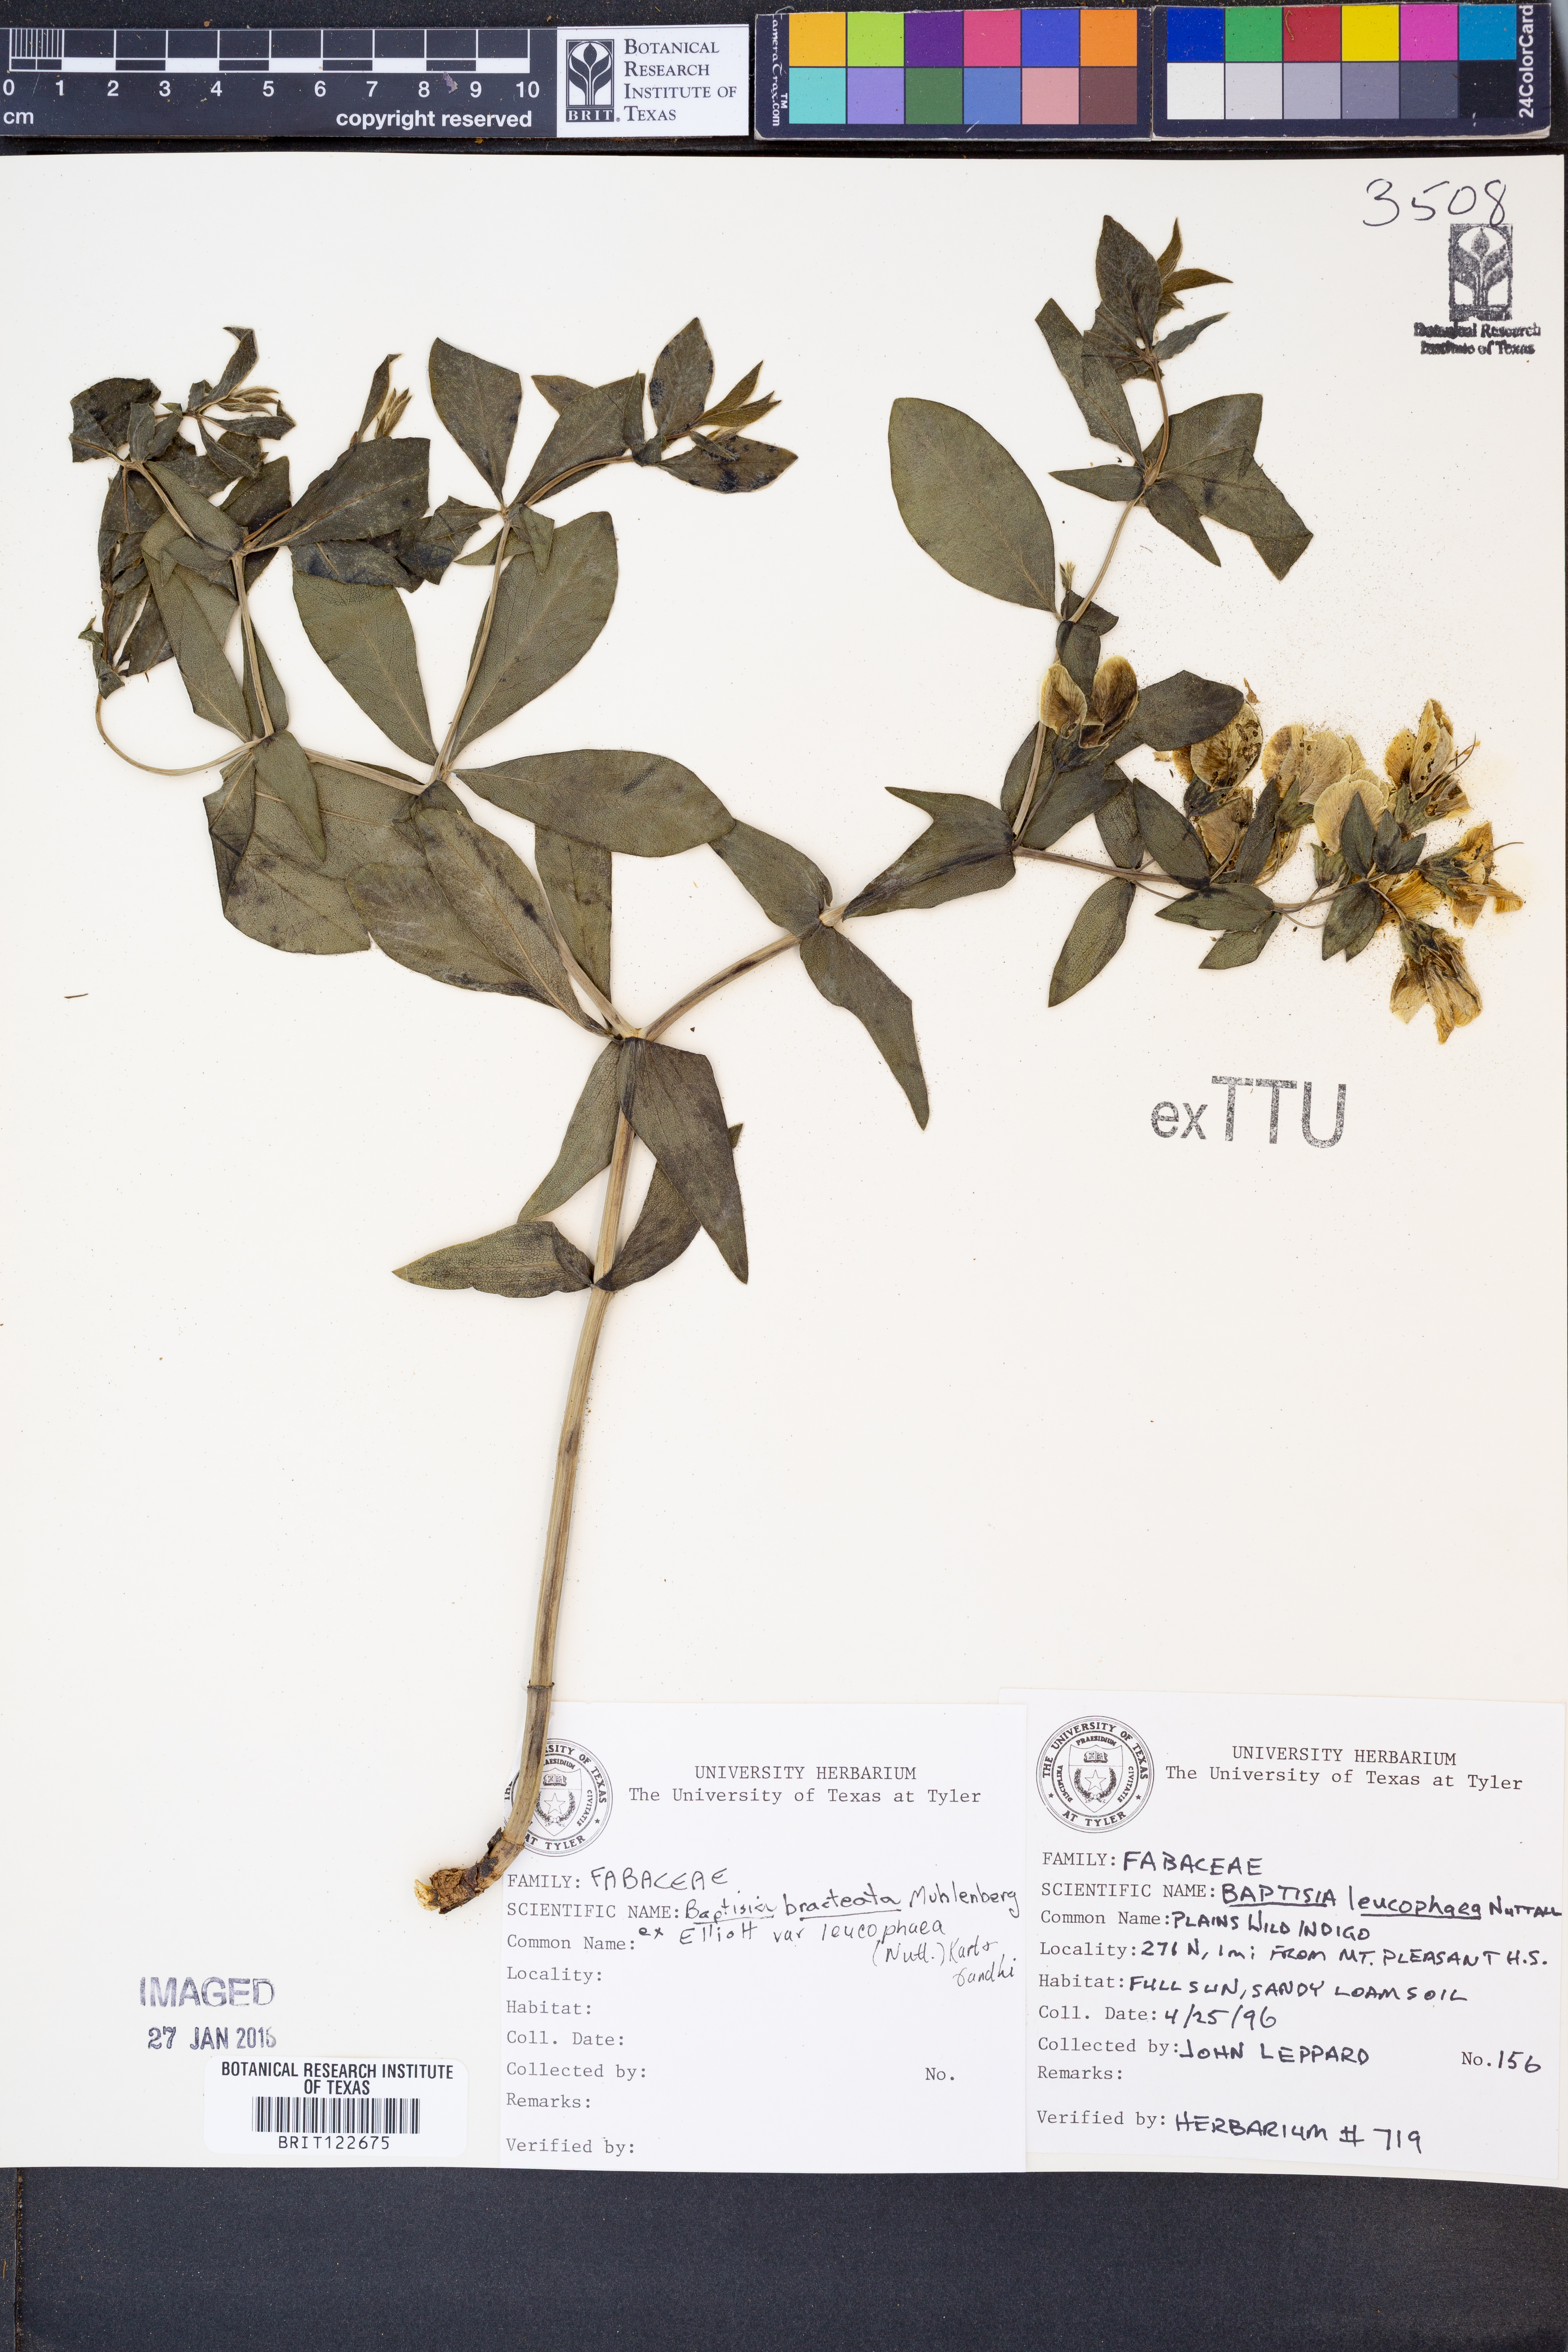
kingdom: Plantae
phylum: Tracheophyta
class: Magnoliopsida
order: Fabales
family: Fabaceae
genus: Baptisia
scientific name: Baptisia bracteata
